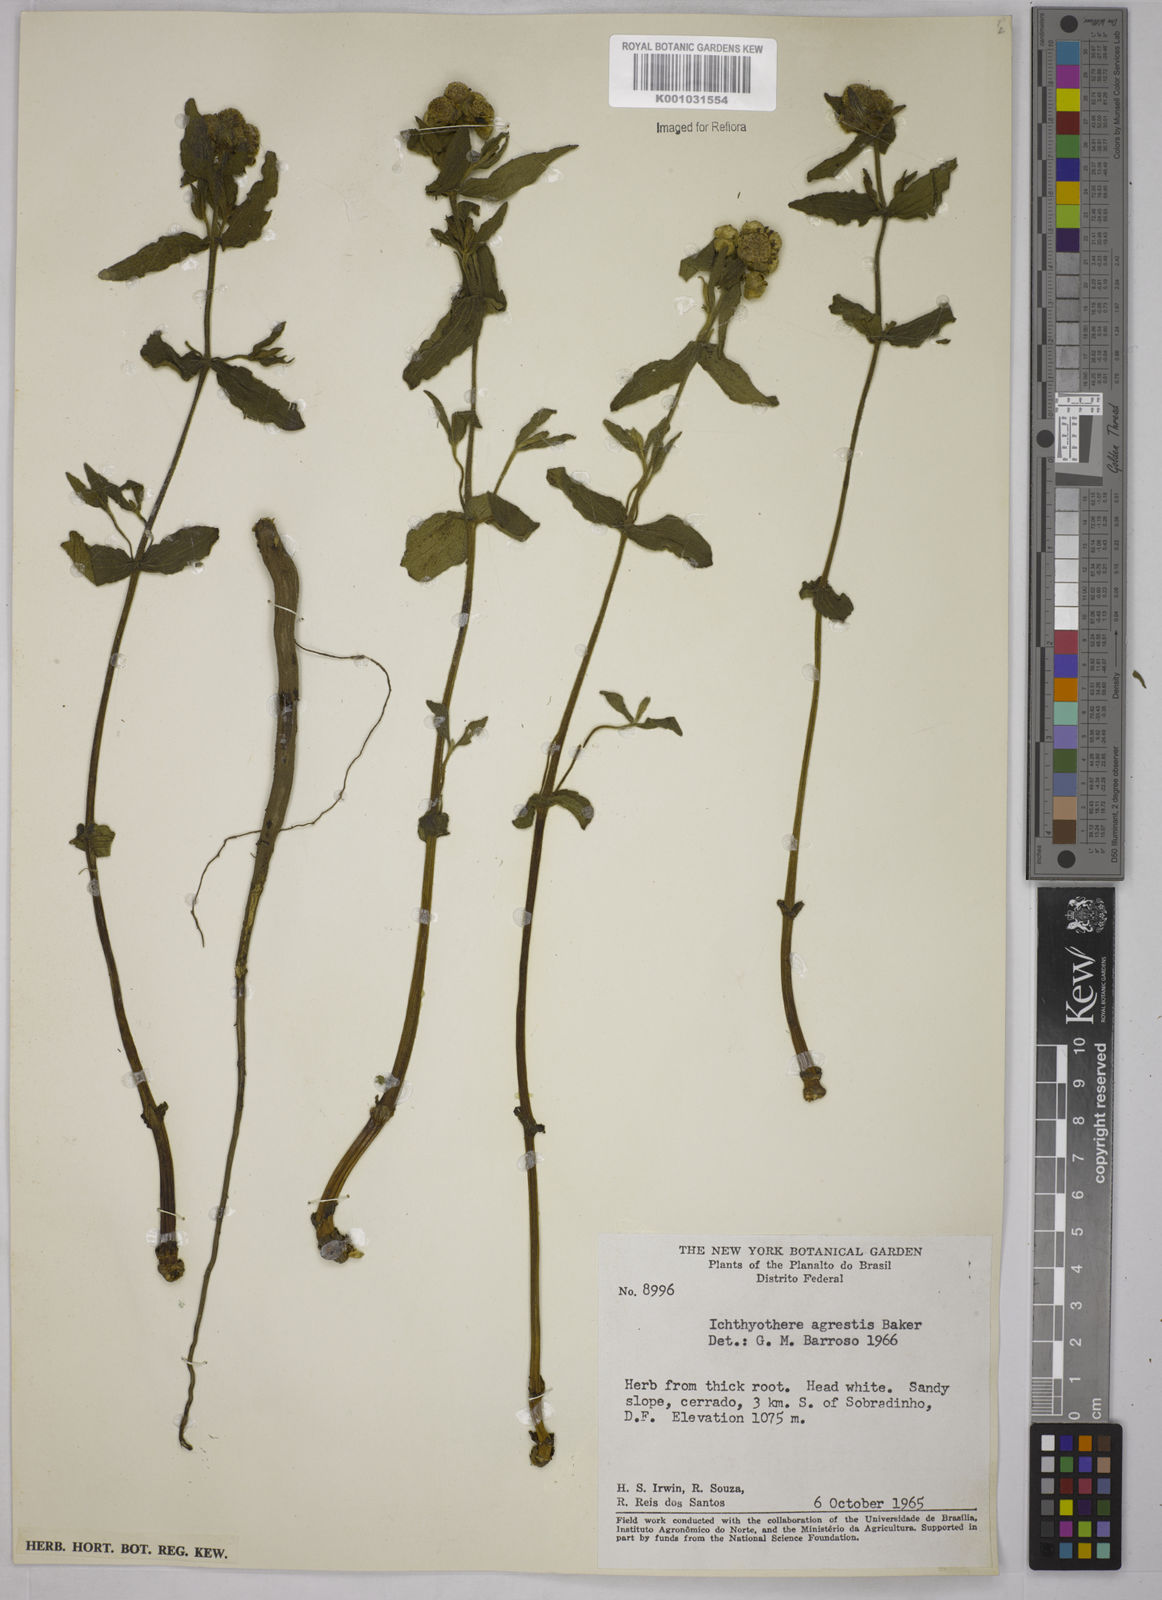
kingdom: Plantae
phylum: Tracheophyta
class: Magnoliopsida
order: Asterales
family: Asteraceae
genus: Ichthyothere
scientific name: Ichthyothere integrifolia
